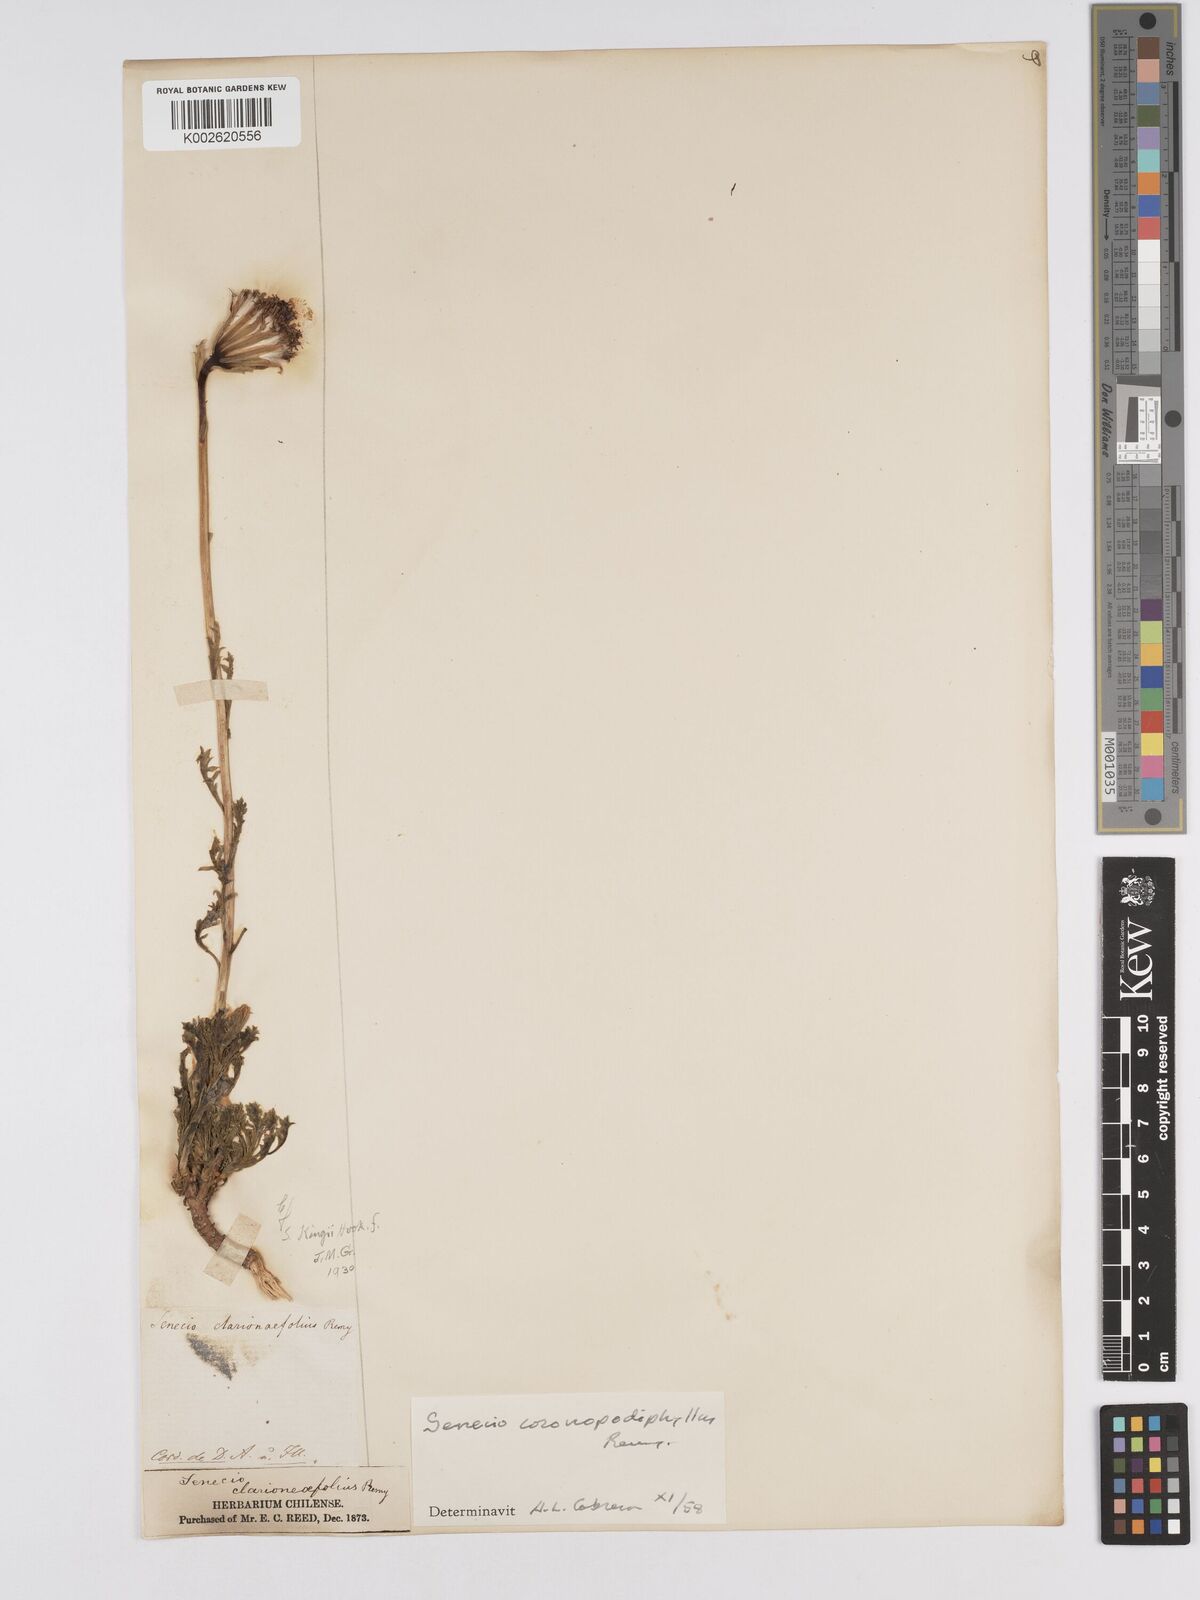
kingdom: Plantae
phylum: Tracheophyta
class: Magnoliopsida
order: Asterales
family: Asteraceae
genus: Senecio
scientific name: Senecio coronopodiphyllus
